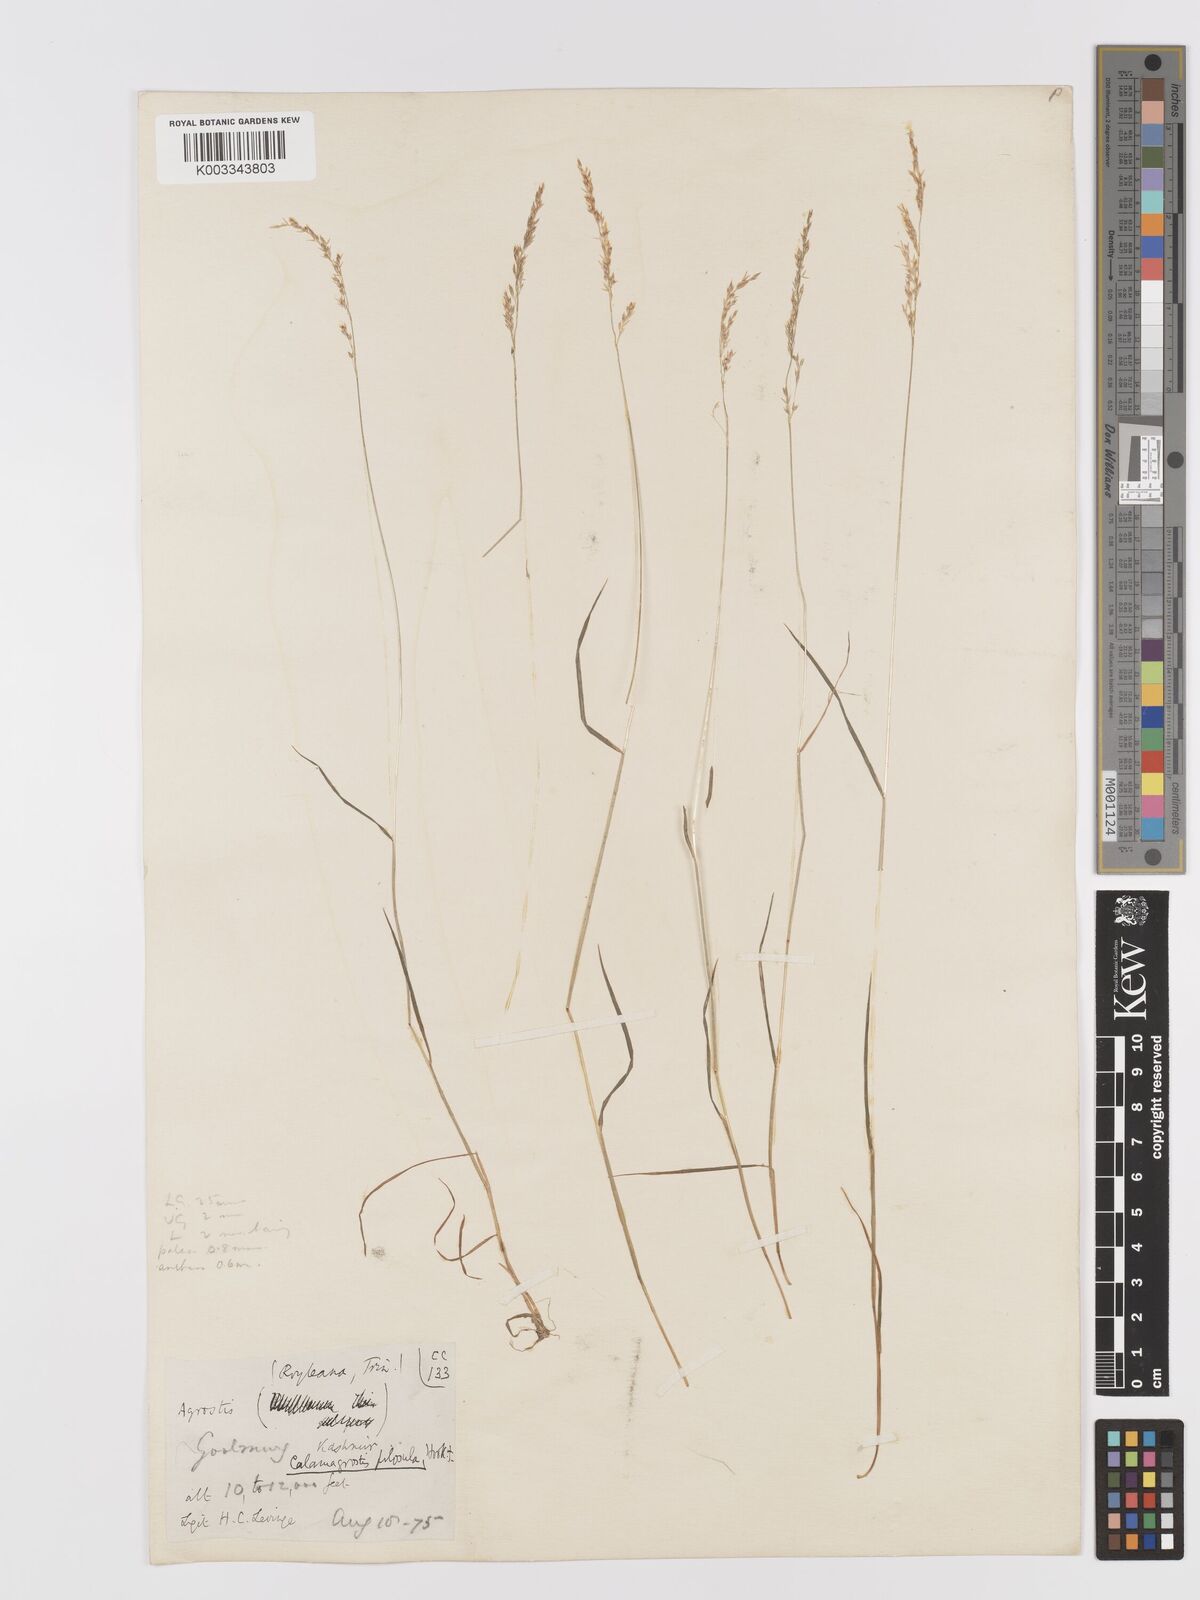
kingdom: Plantae
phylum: Tracheophyta
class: Liliopsida
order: Poales
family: Poaceae
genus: Agrostis
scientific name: Agrostis pilosula
